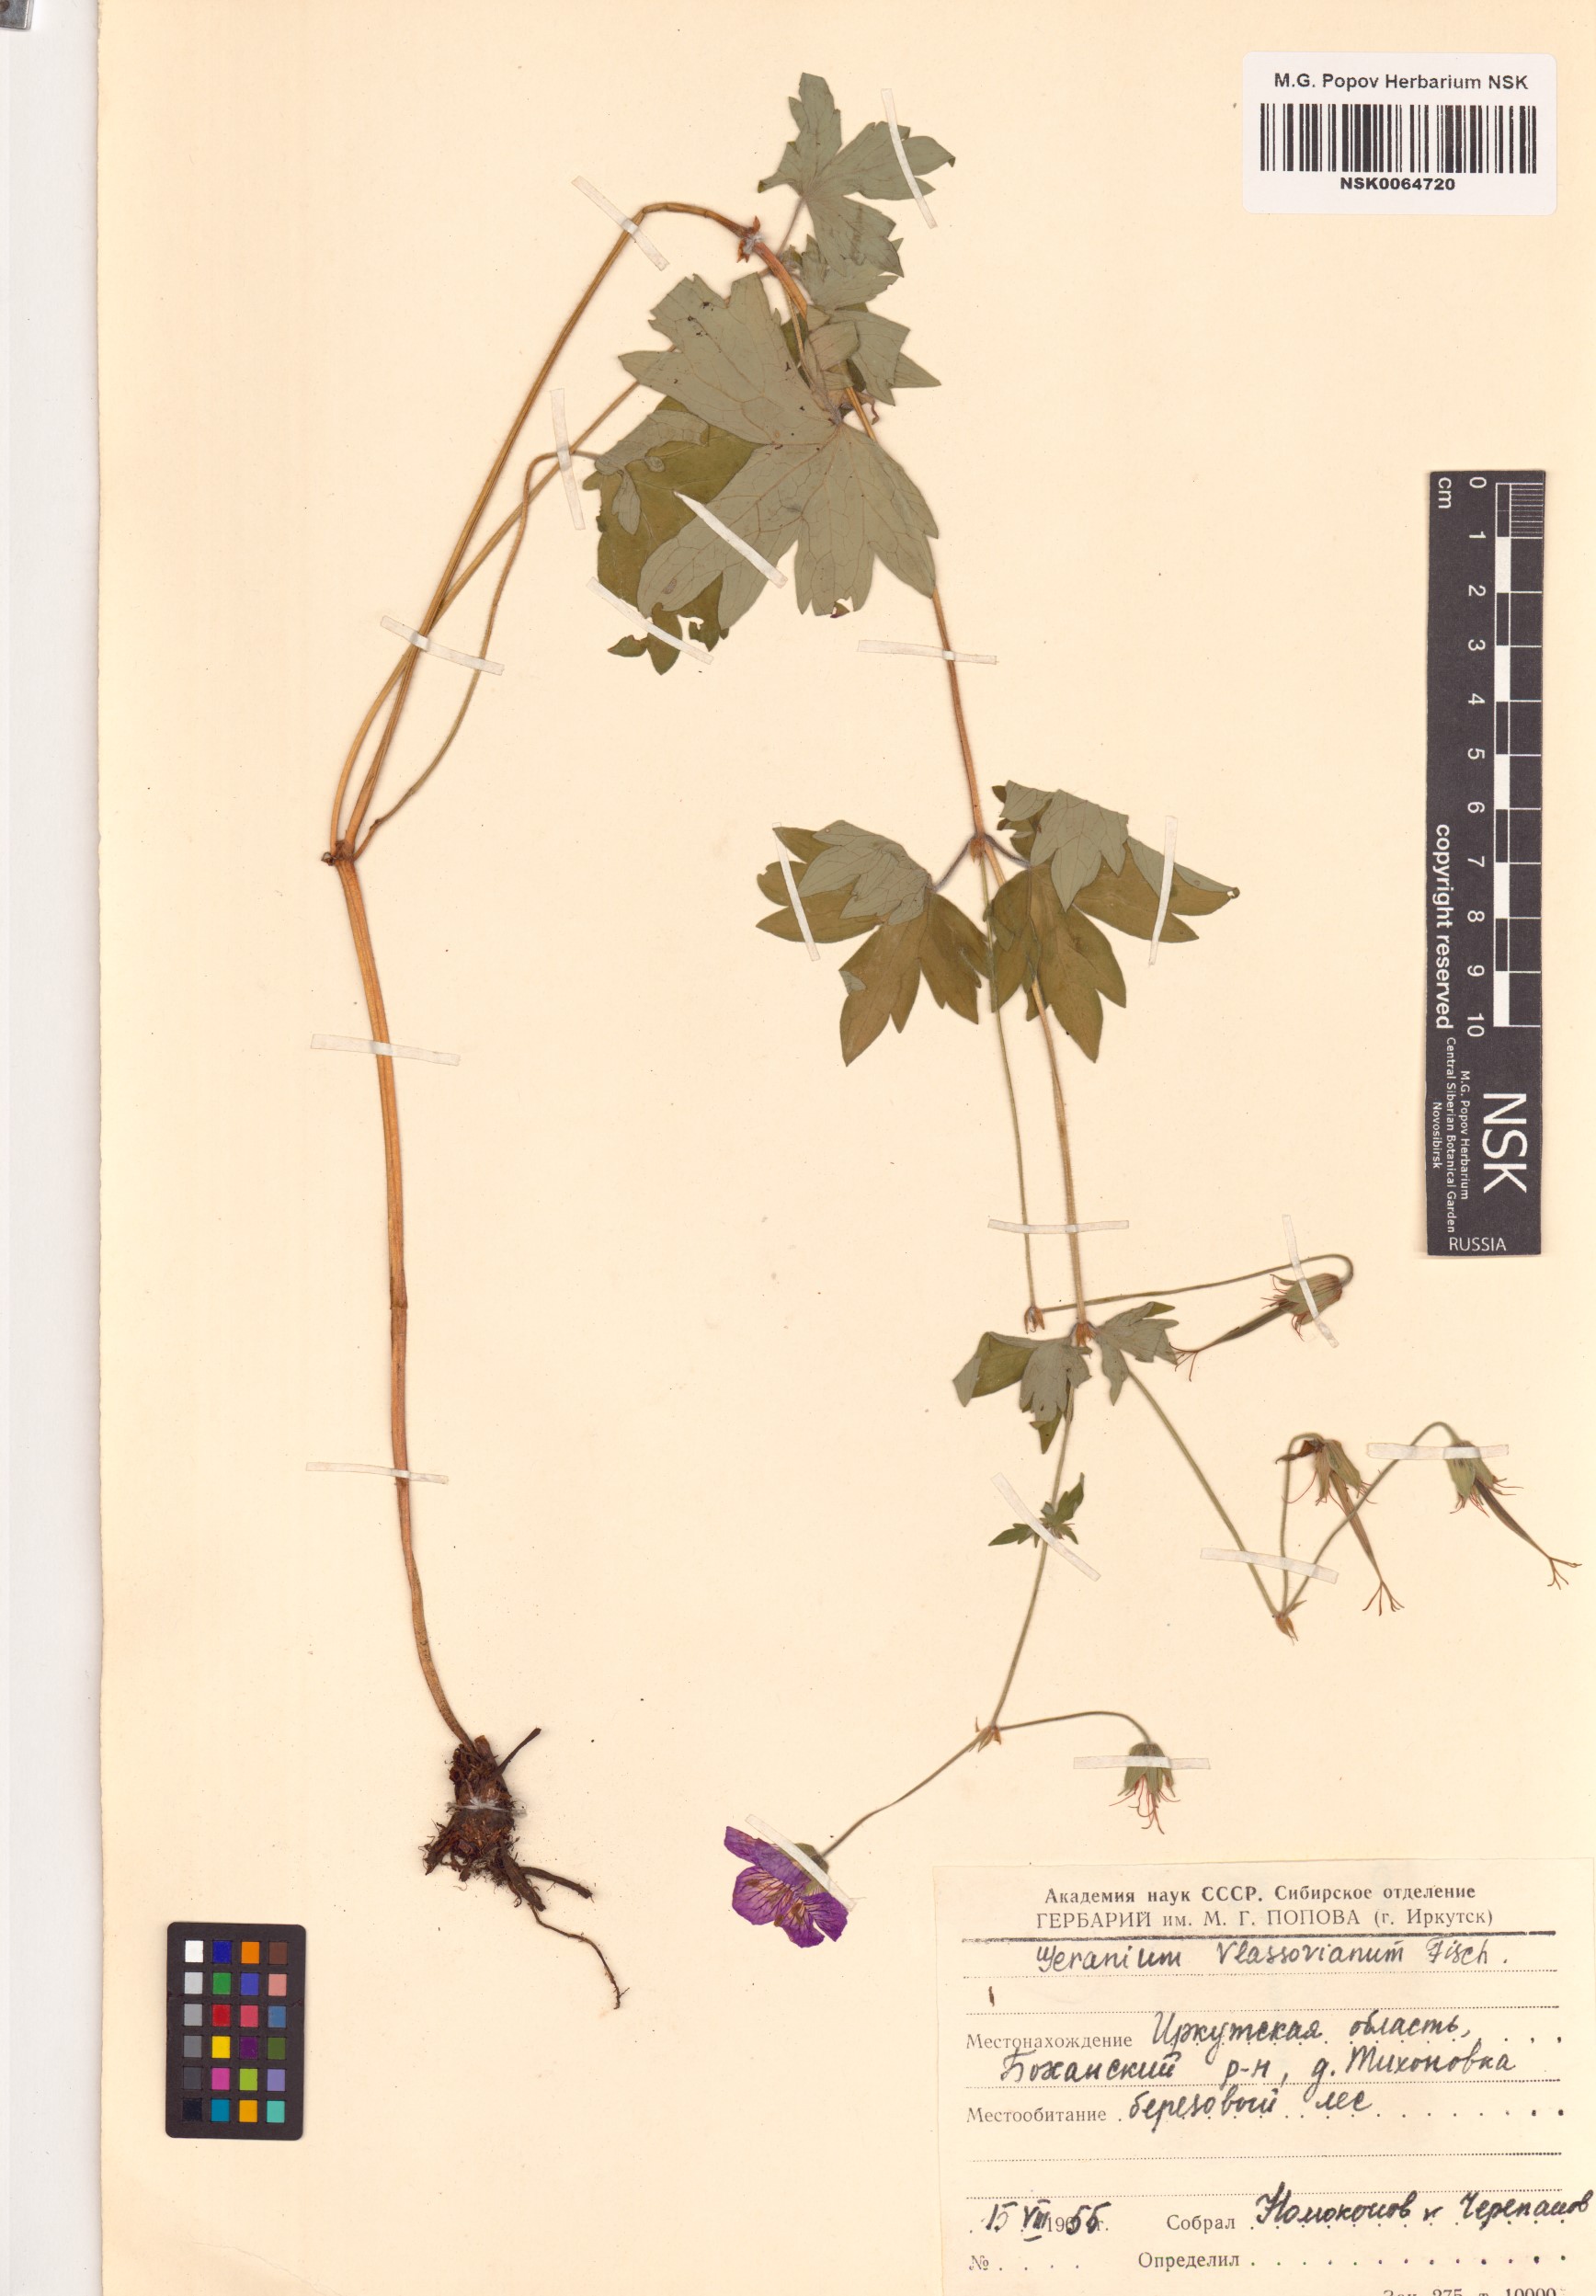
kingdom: Plantae
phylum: Tracheophyta
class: Magnoliopsida
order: Geraniales
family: Geraniaceae
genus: Geranium
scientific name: Geranium wlassovianum
